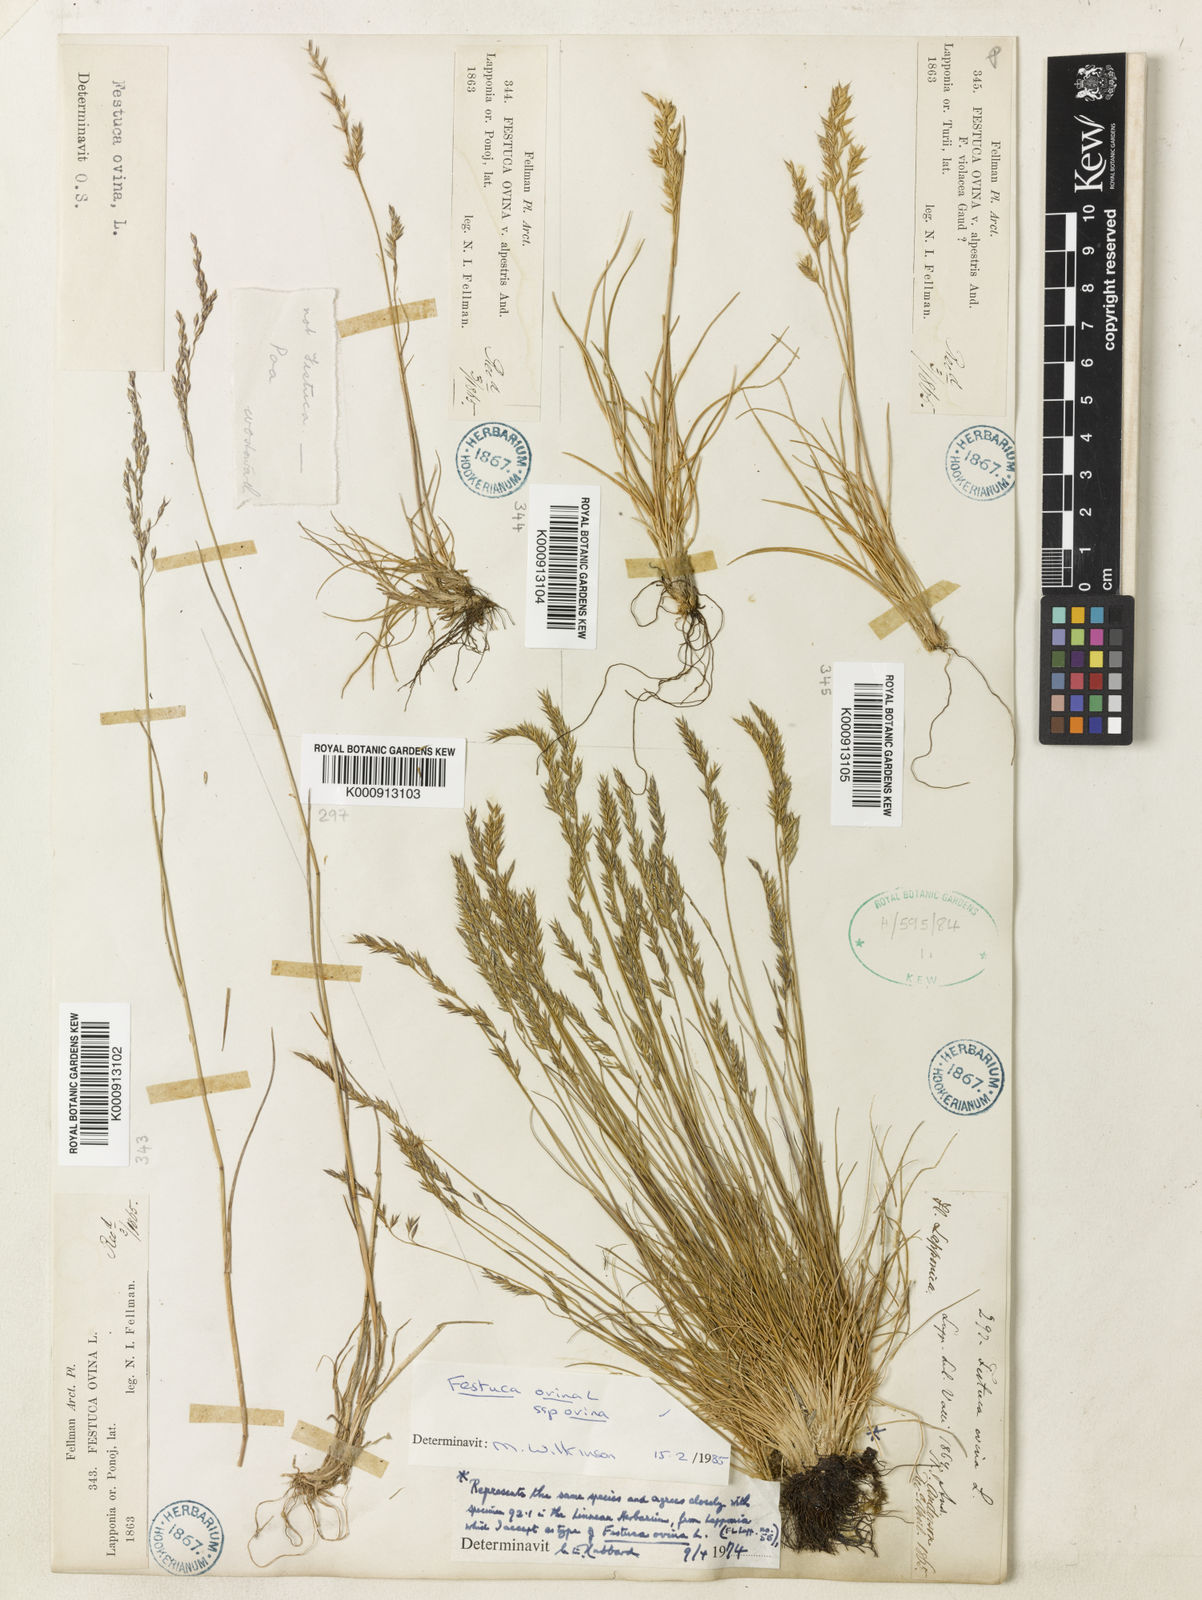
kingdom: Plantae
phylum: Tracheophyta
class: Liliopsida
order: Poales
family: Poaceae
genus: Festuca
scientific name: Festuca ovina
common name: Sheep fescue
